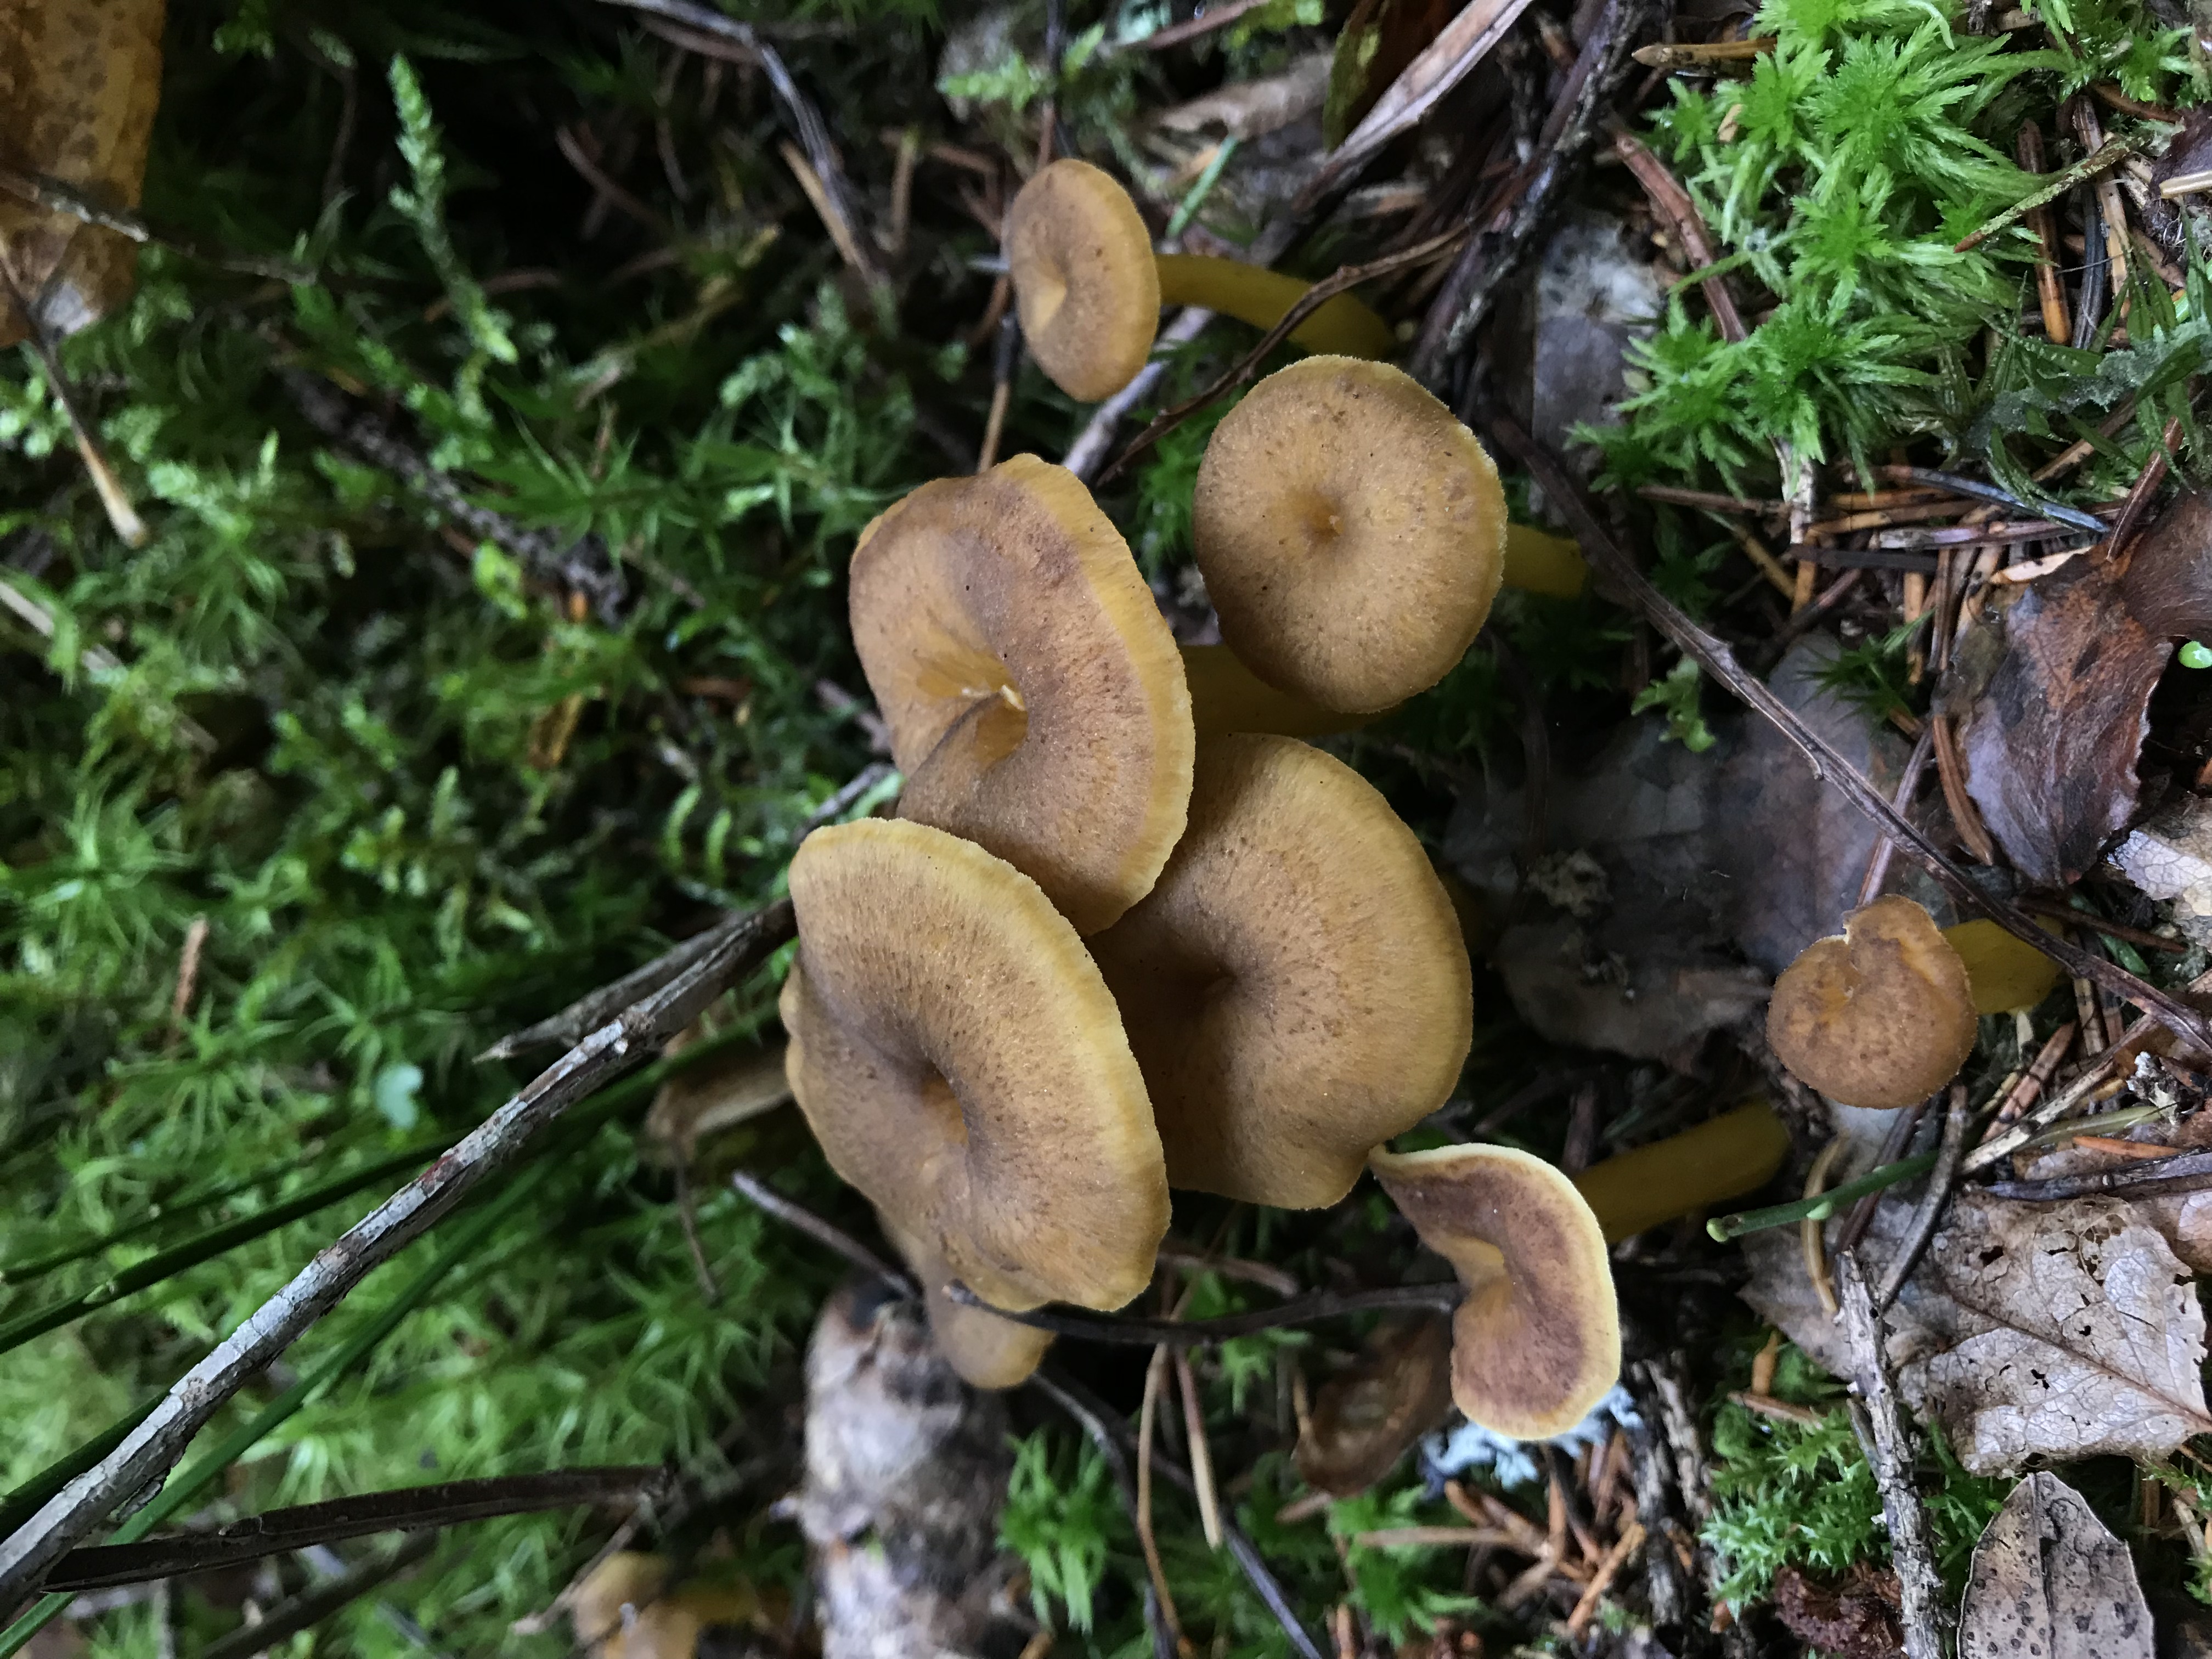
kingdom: Fungi
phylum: Basidiomycota
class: Agaricomycetes
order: Cantharellales
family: Hydnaceae
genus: Craterellus
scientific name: Craterellus tubaeformis
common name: Yellowfoot
